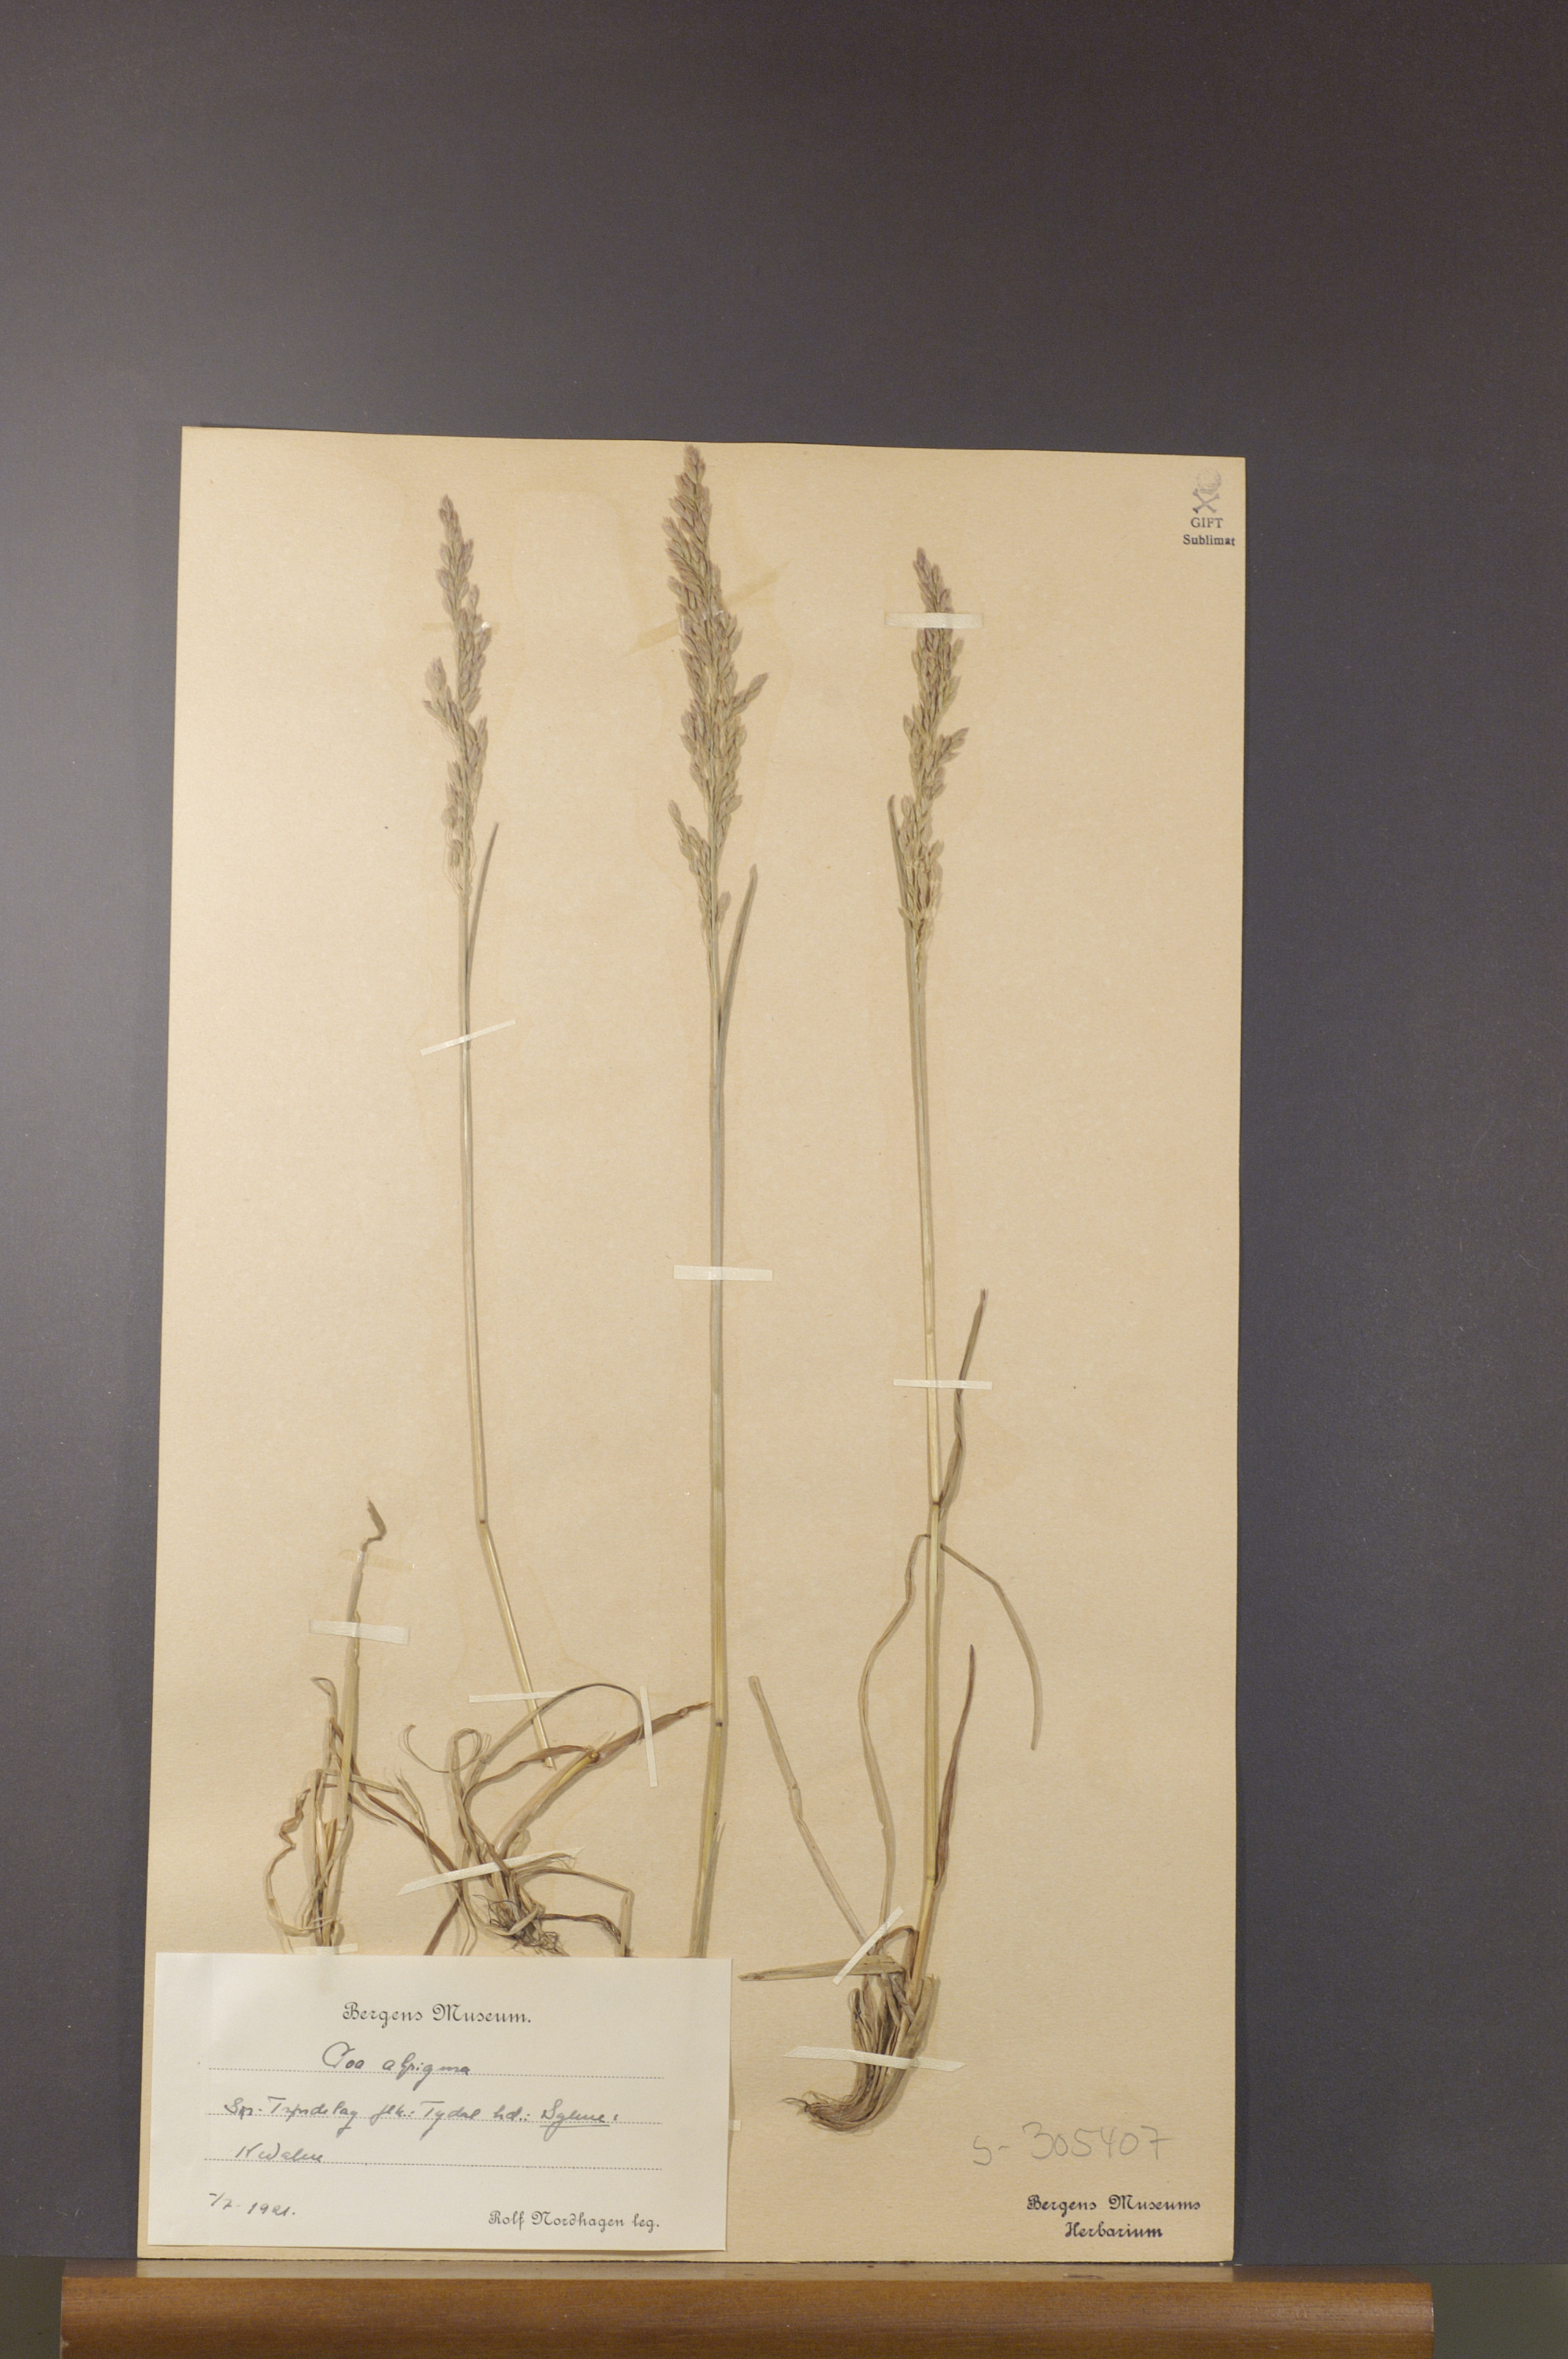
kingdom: Plantae
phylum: Tracheophyta
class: Liliopsida
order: Poales
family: Poaceae
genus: Poa
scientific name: Poa alpigena
